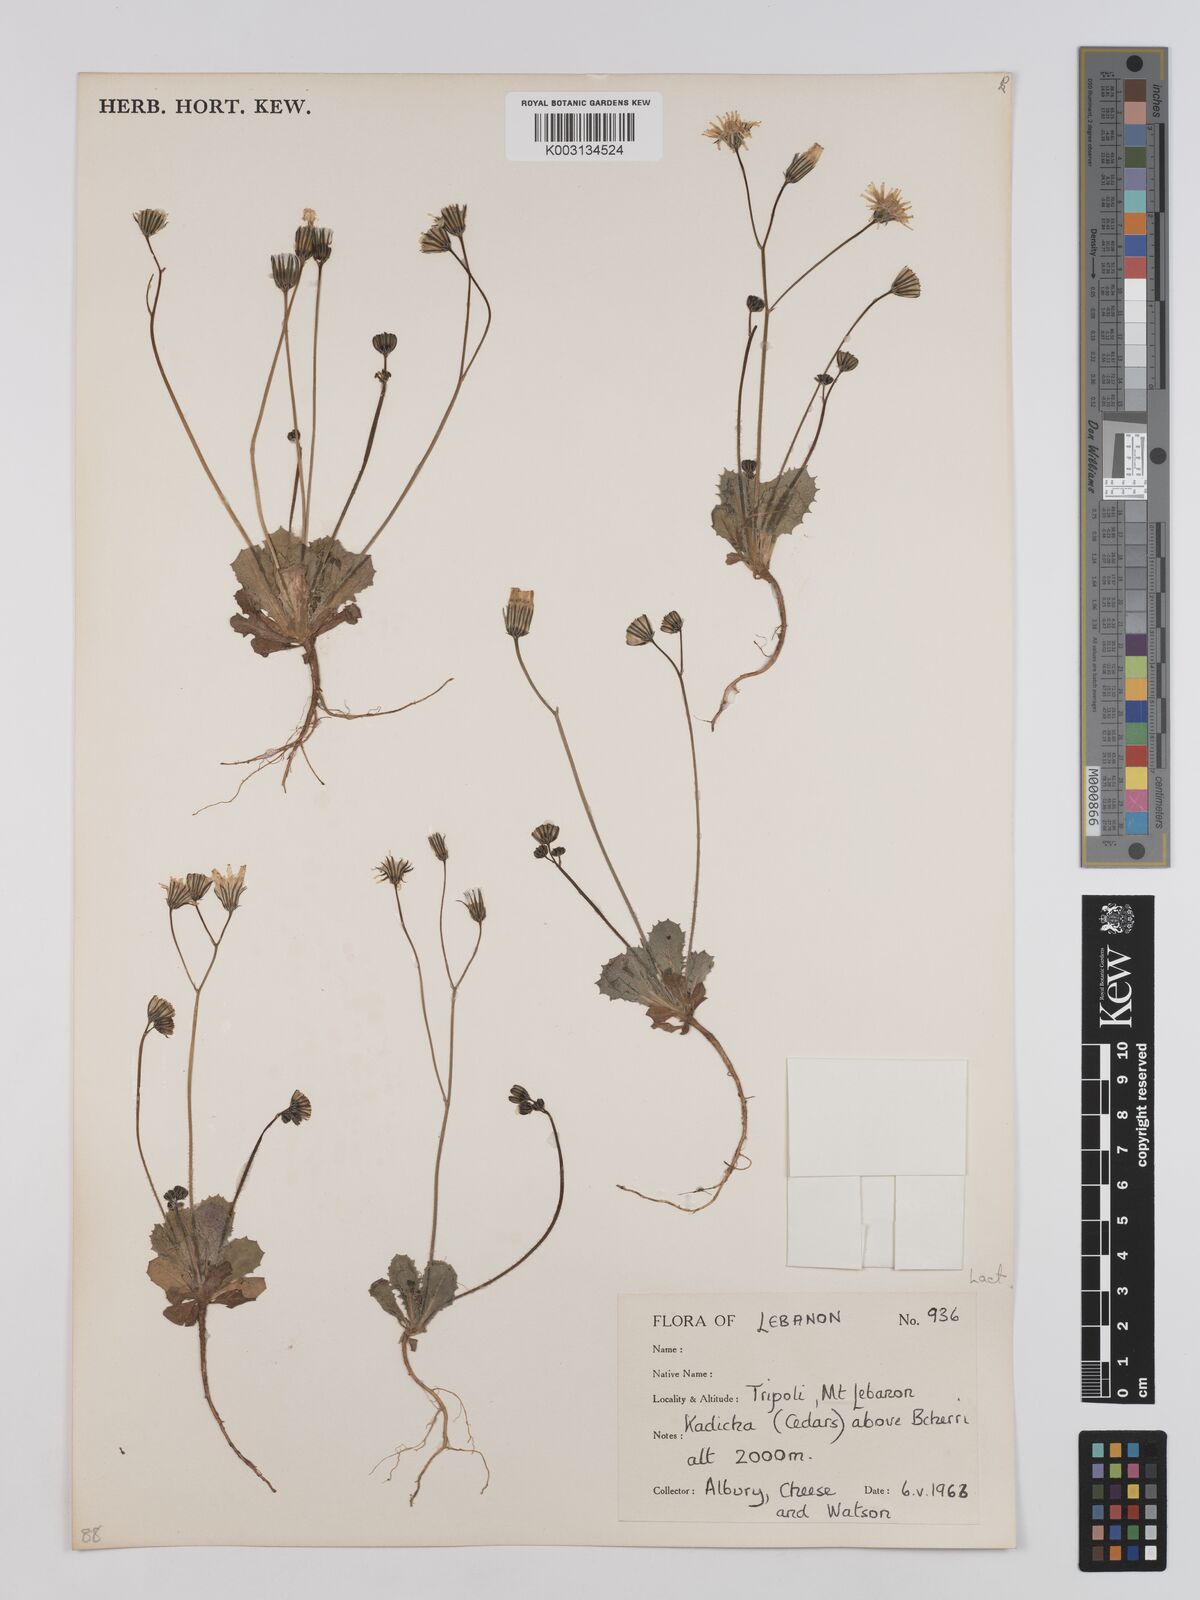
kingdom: Plantae
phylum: Tracheophyta
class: Magnoliopsida
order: Asterales
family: Asteraceae
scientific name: Asteraceae
